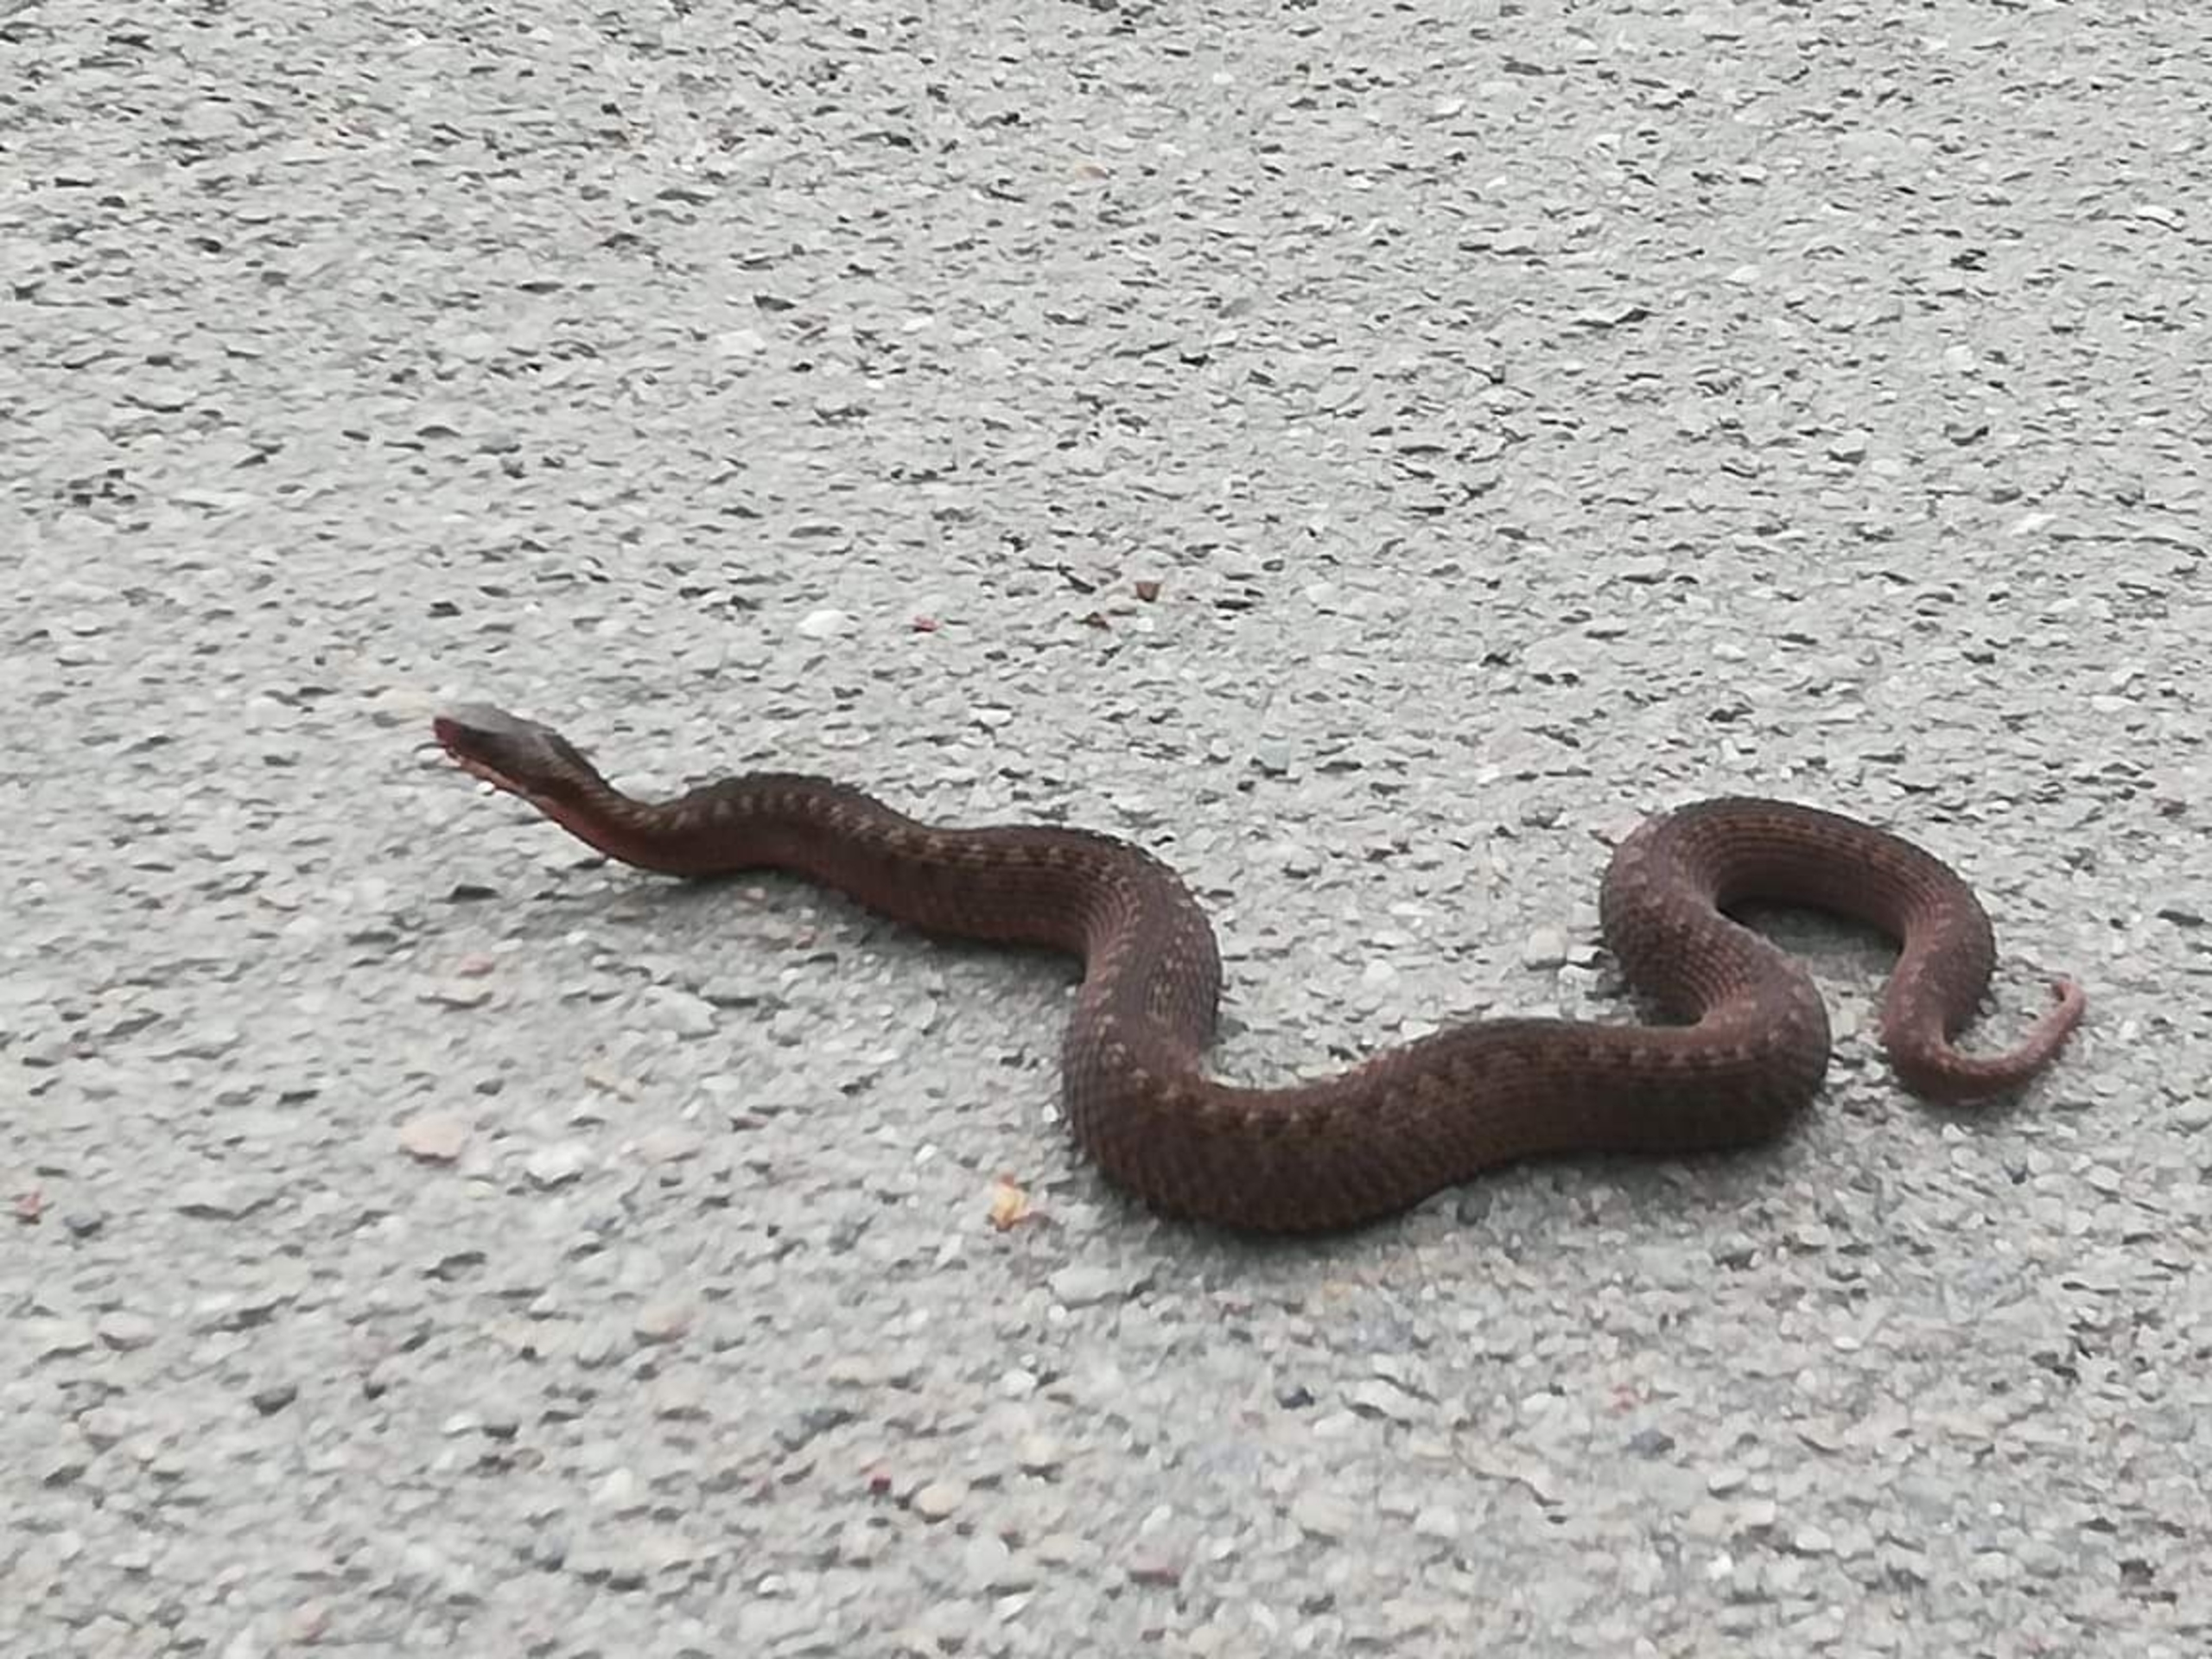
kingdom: Animalia
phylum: Chordata
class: Squamata
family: Viperidae
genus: Vipera
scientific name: Vipera berus
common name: Hugorm
